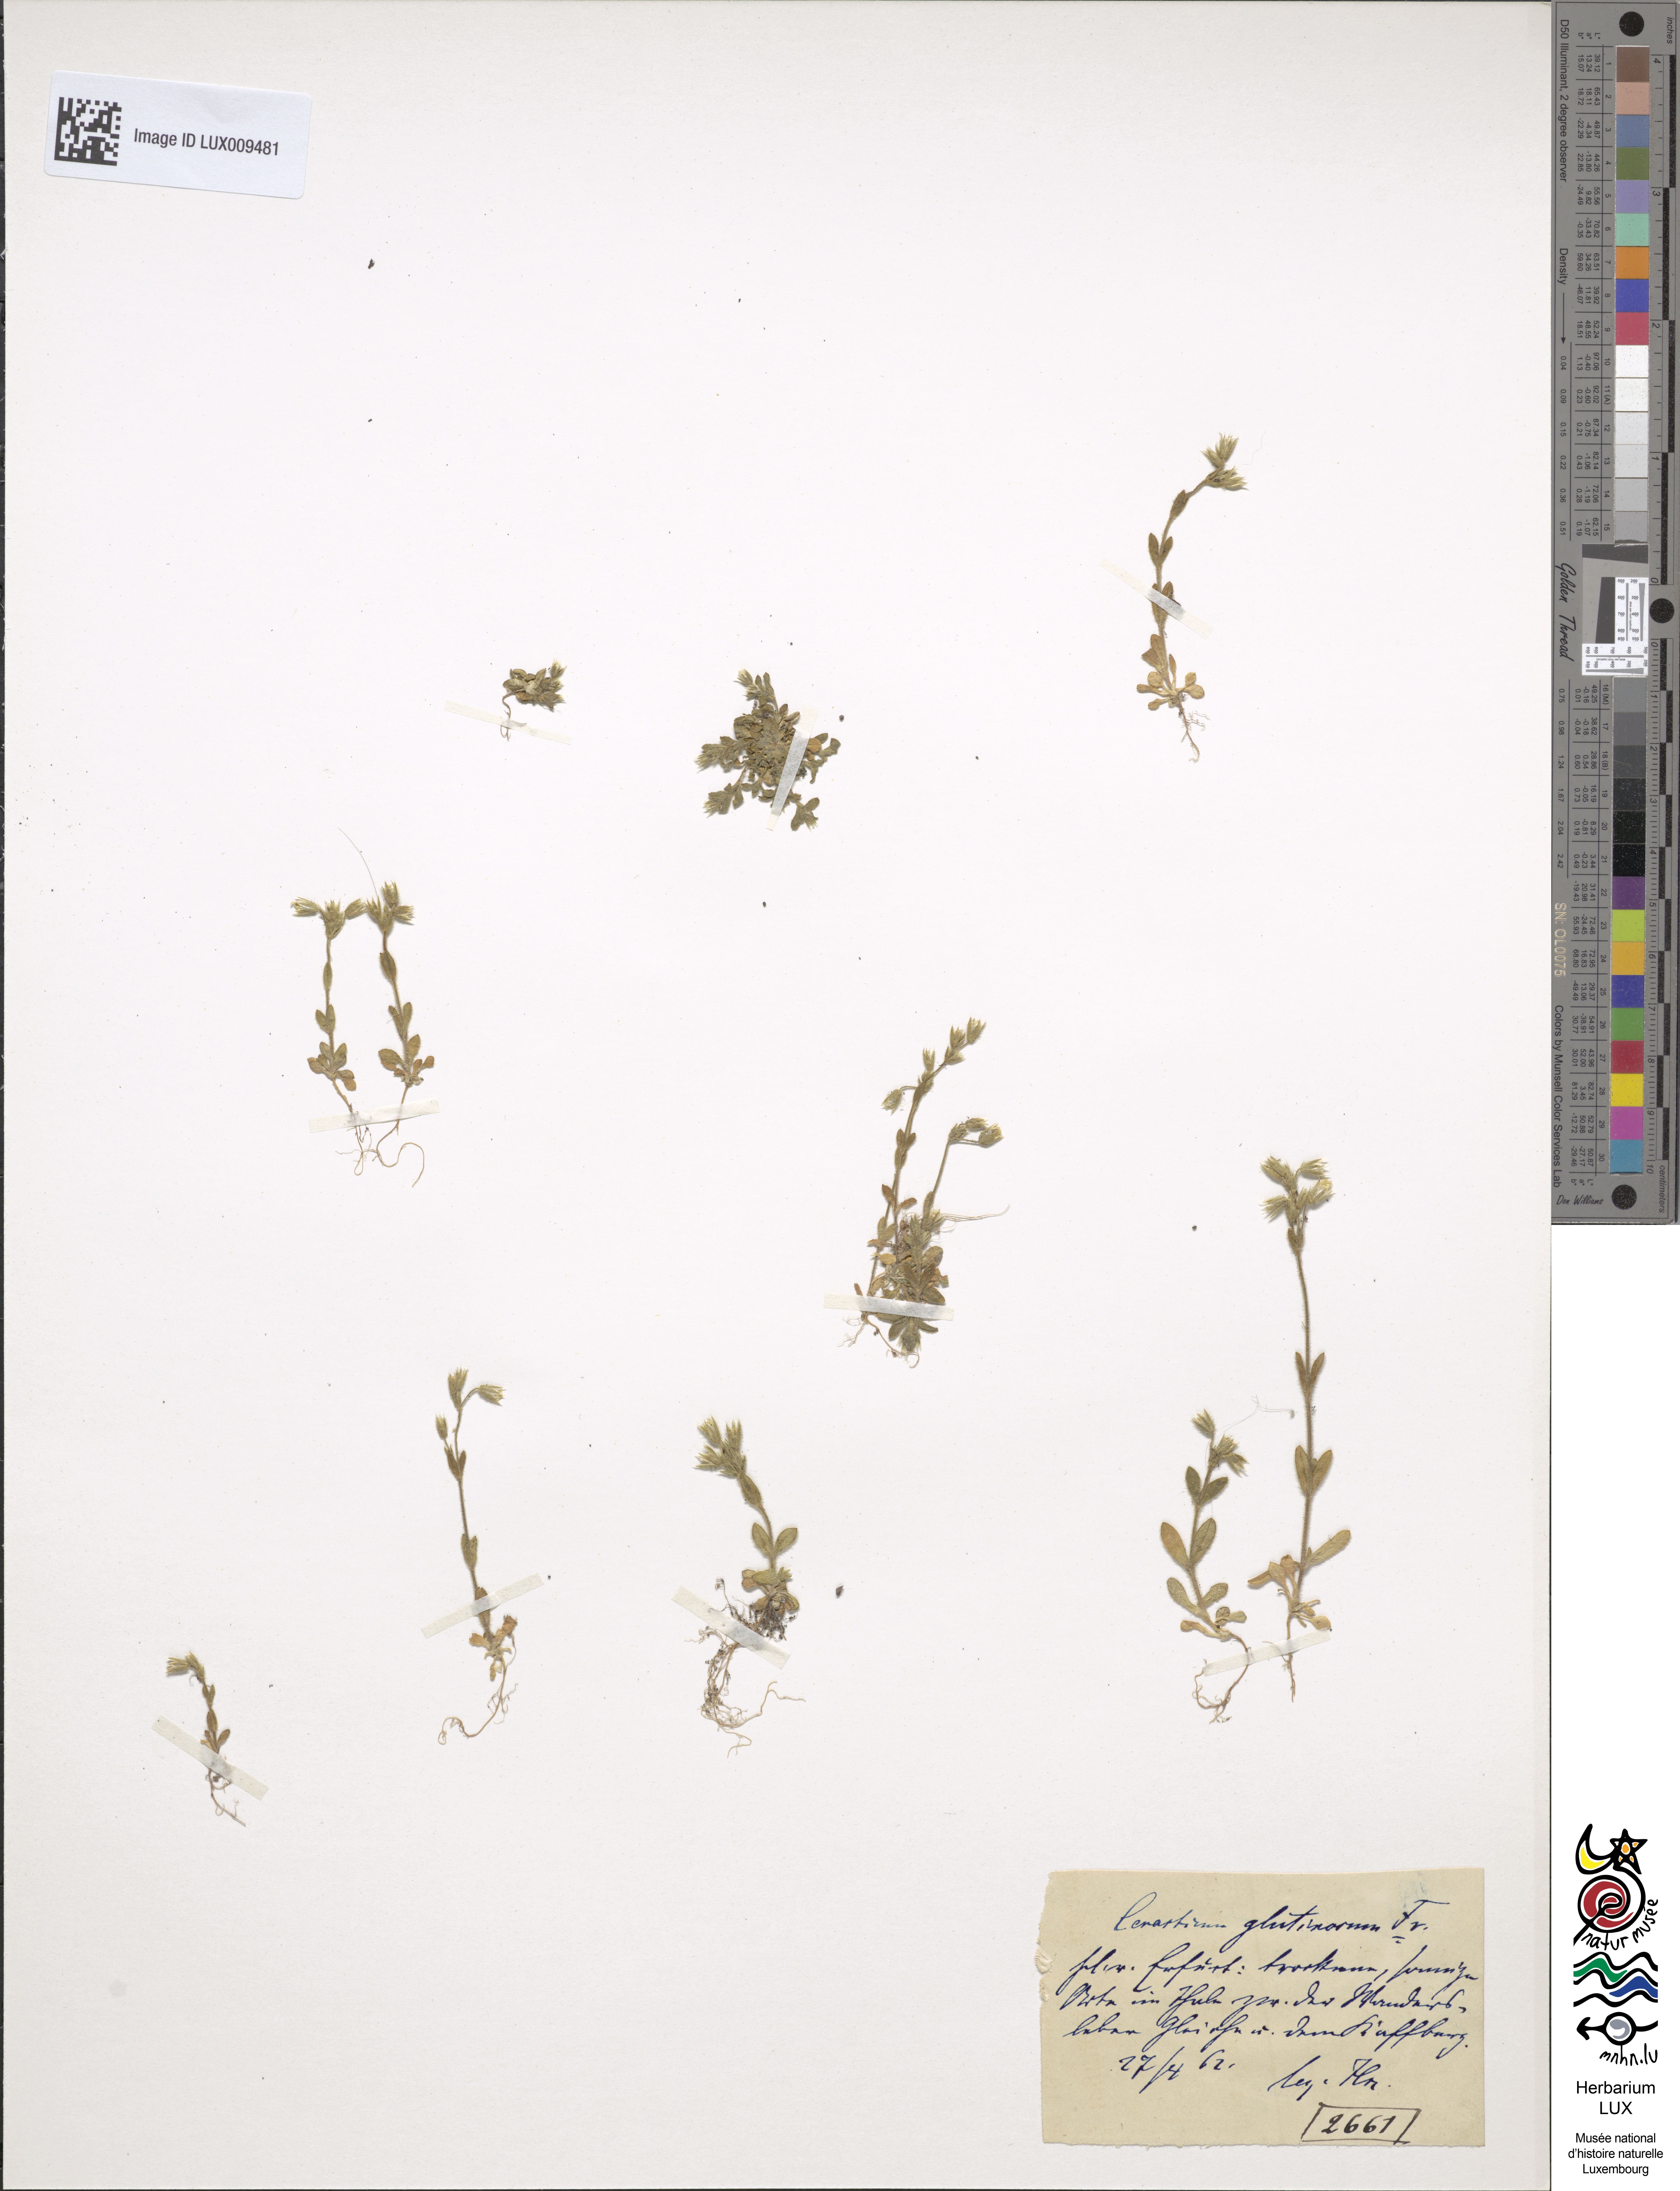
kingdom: Plantae
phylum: Tracheophyta
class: Magnoliopsida
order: Caryophyllales
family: Caryophyllaceae
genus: Cerastium
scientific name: Cerastium pumilum
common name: Dwarf mouse-ear
